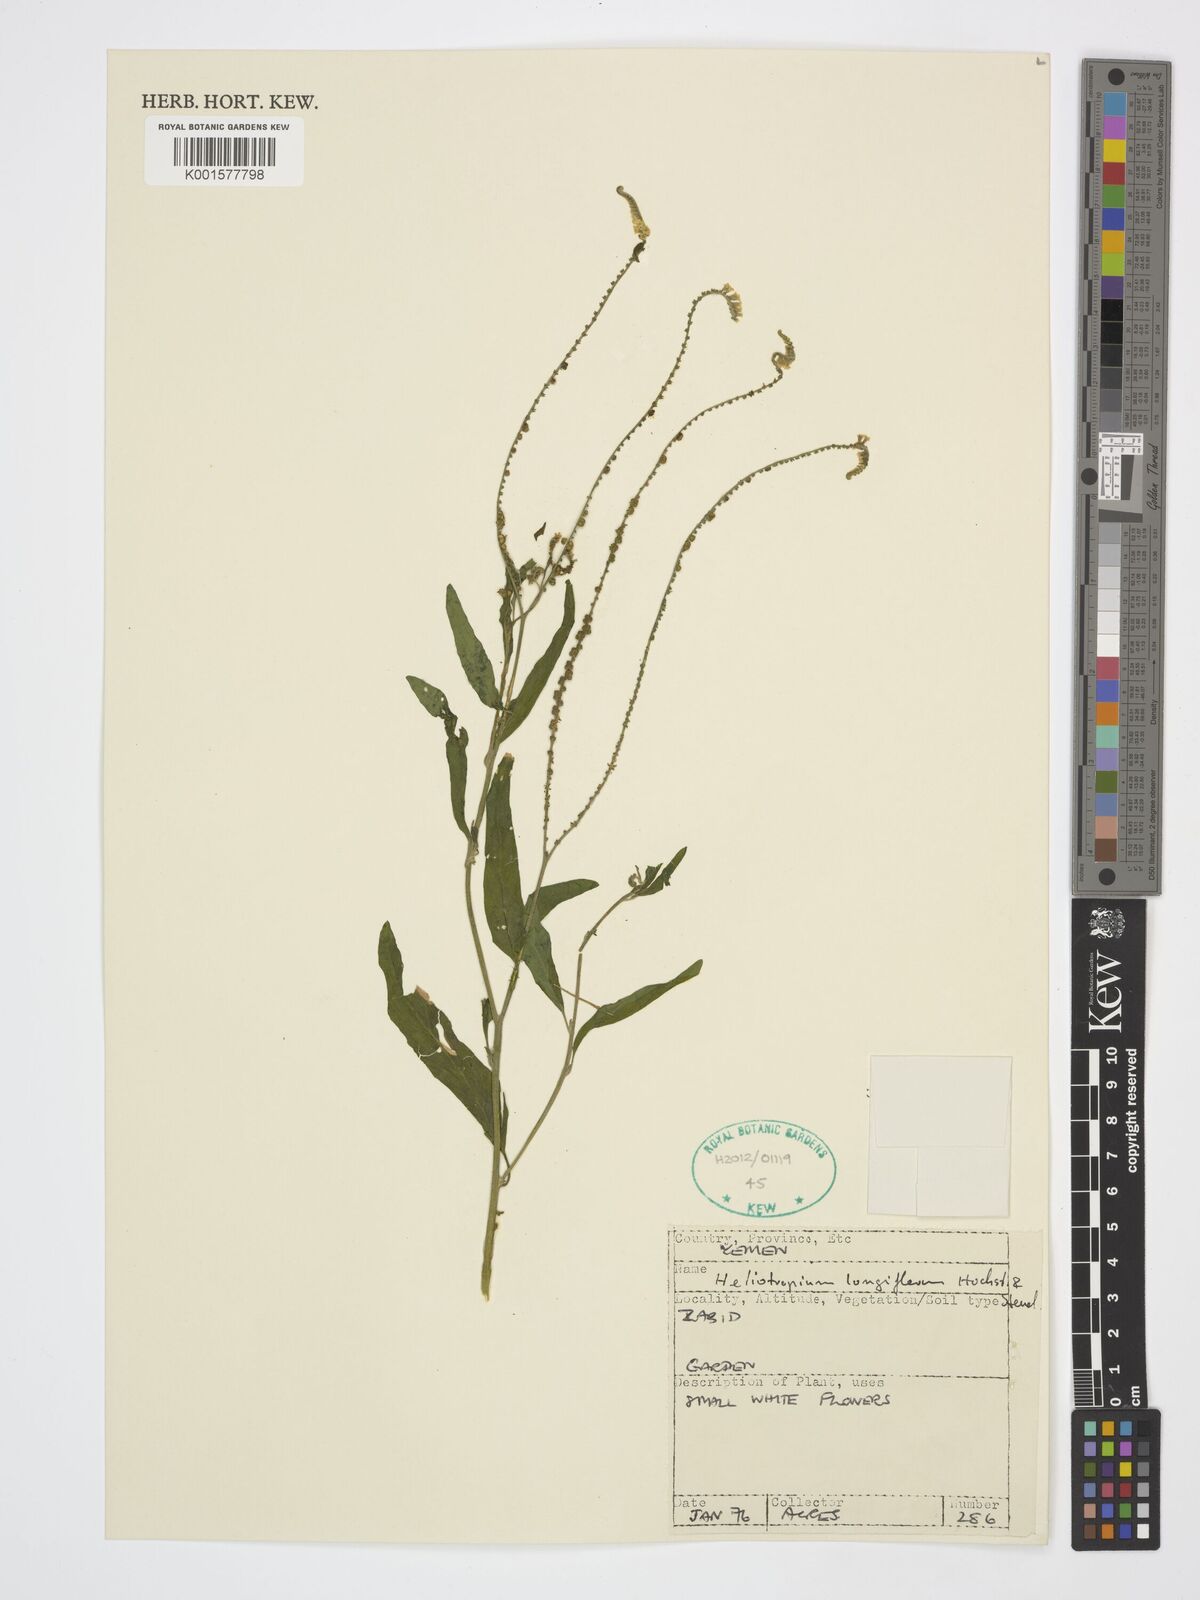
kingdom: Plantae
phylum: Tracheophyta
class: Magnoliopsida
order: Boraginales
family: Heliotropiaceae
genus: Heliotropium
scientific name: Heliotropium longiflorum
